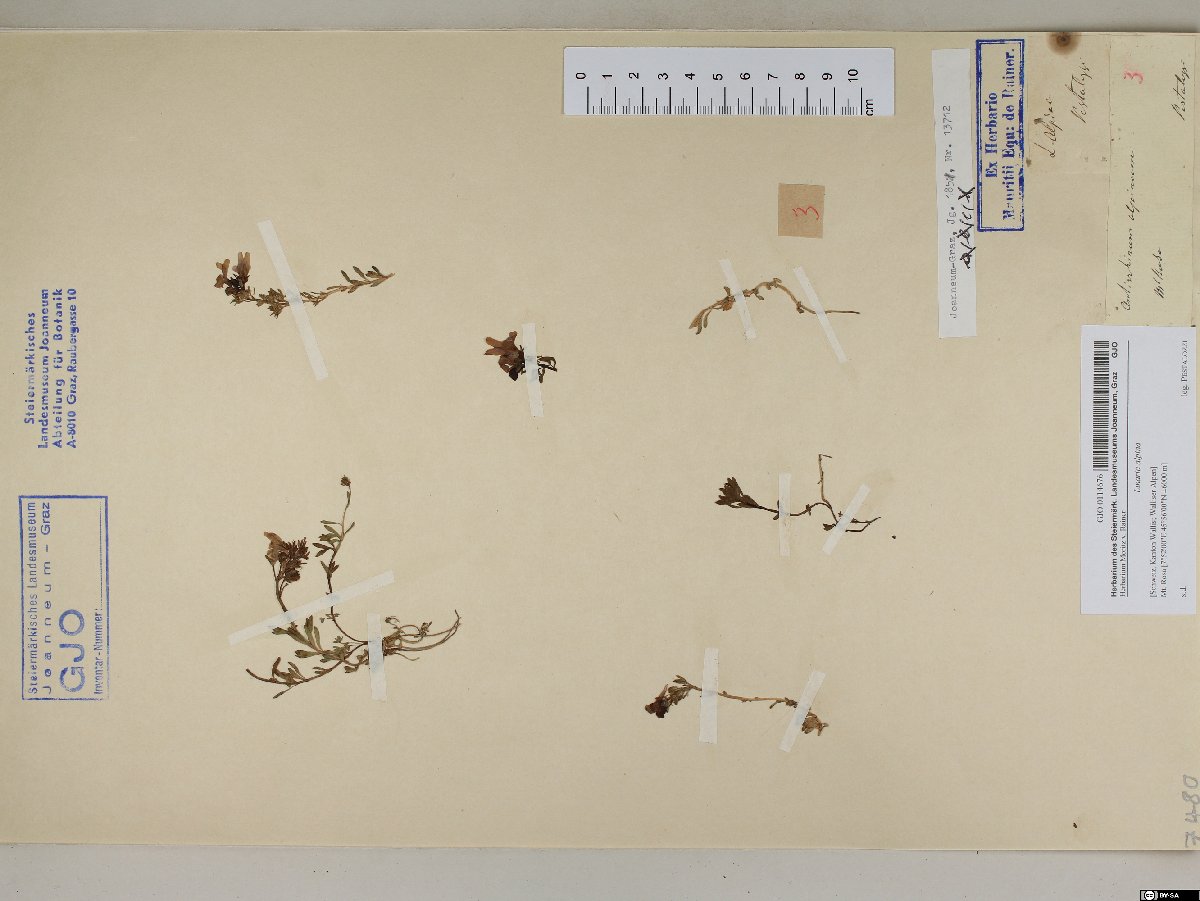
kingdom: Plantae
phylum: Tracheophyta
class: Magnoliopsida
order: Lamiales
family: Plantaginaceae
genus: Linaria
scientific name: Linaria alpina
